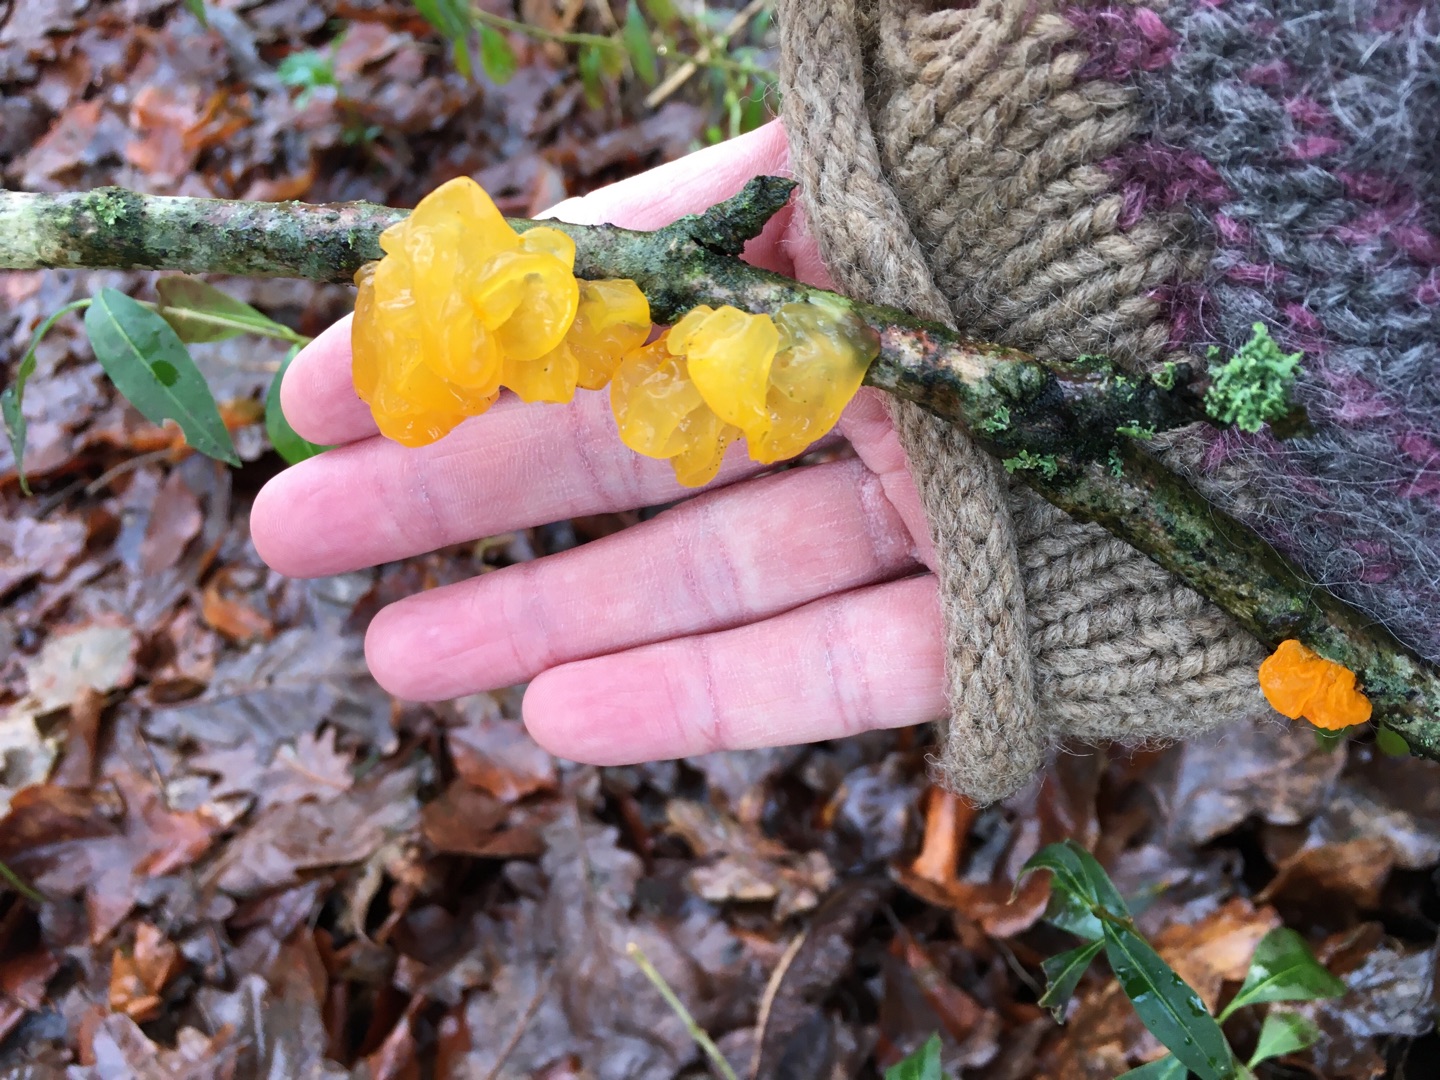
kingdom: Fungi
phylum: Basidiomycota
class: Tremellomycetes
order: Tremellales
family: Tremellaceae
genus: Tremella
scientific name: Tremella mesenterica
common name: Gul bævresvamp
